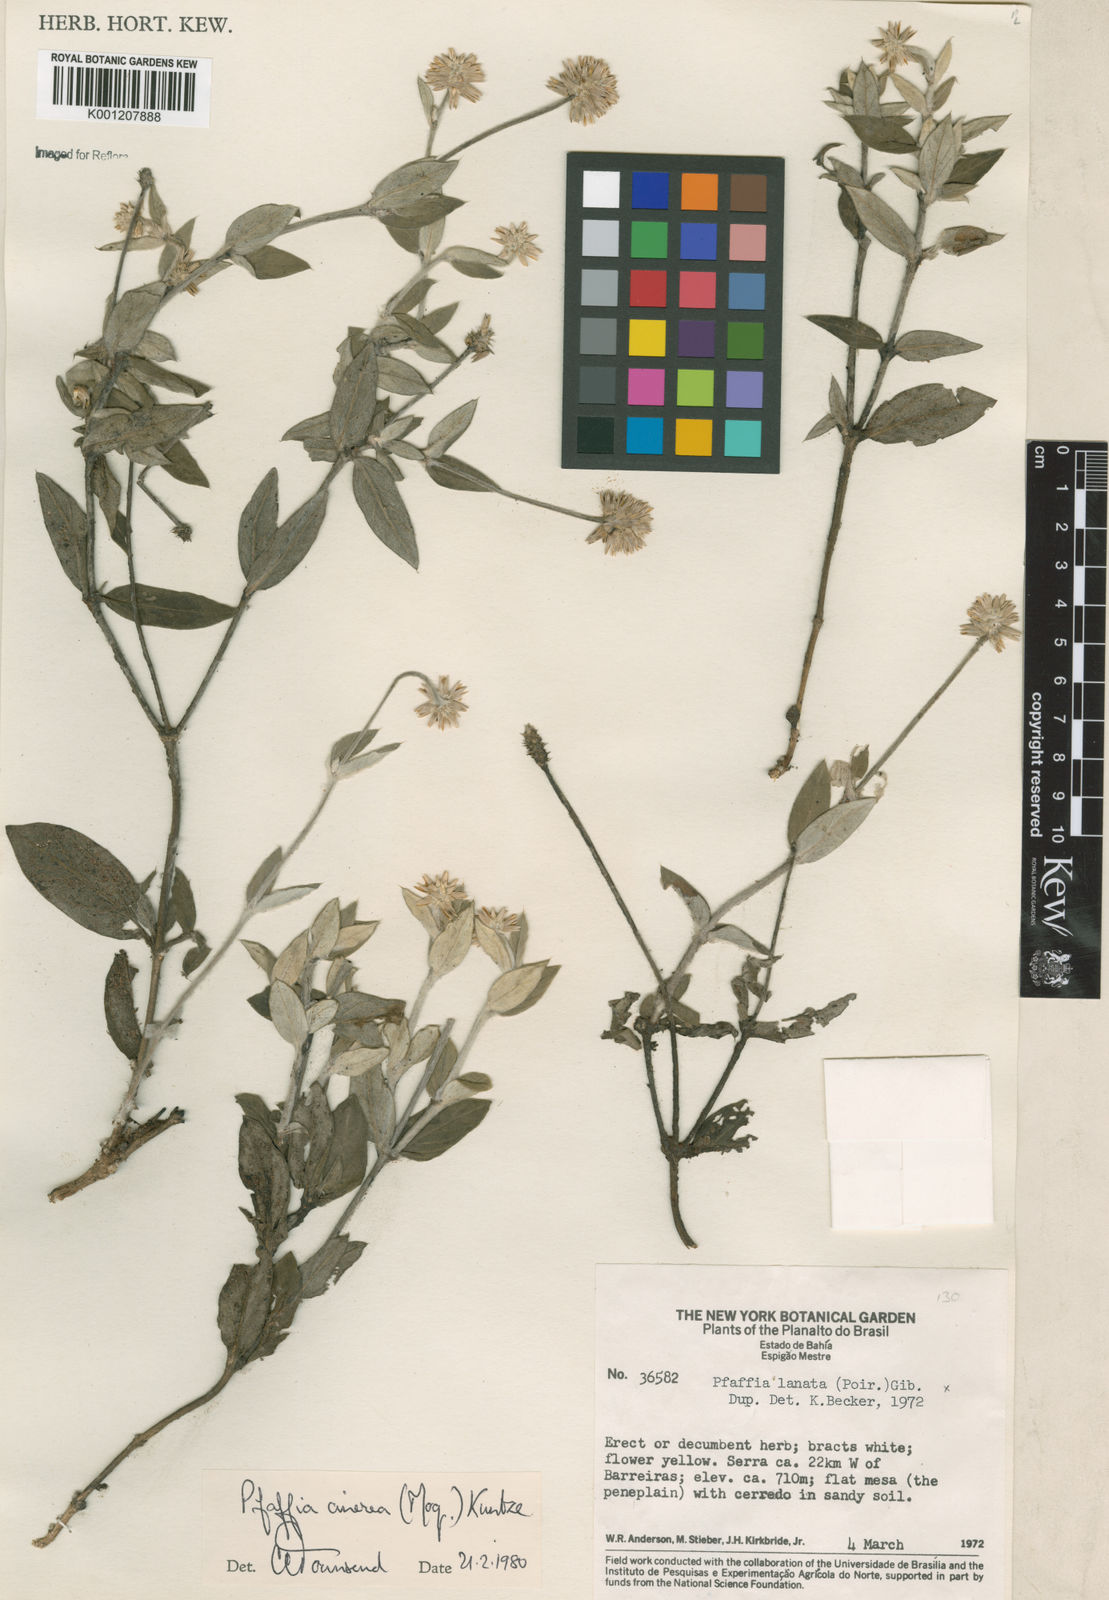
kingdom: Plantae
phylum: Tracheophyta
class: Magnoliopsida
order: Caryophyllales
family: Amaranthaceae
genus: Pfaffia
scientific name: Pfaffia sericantha
